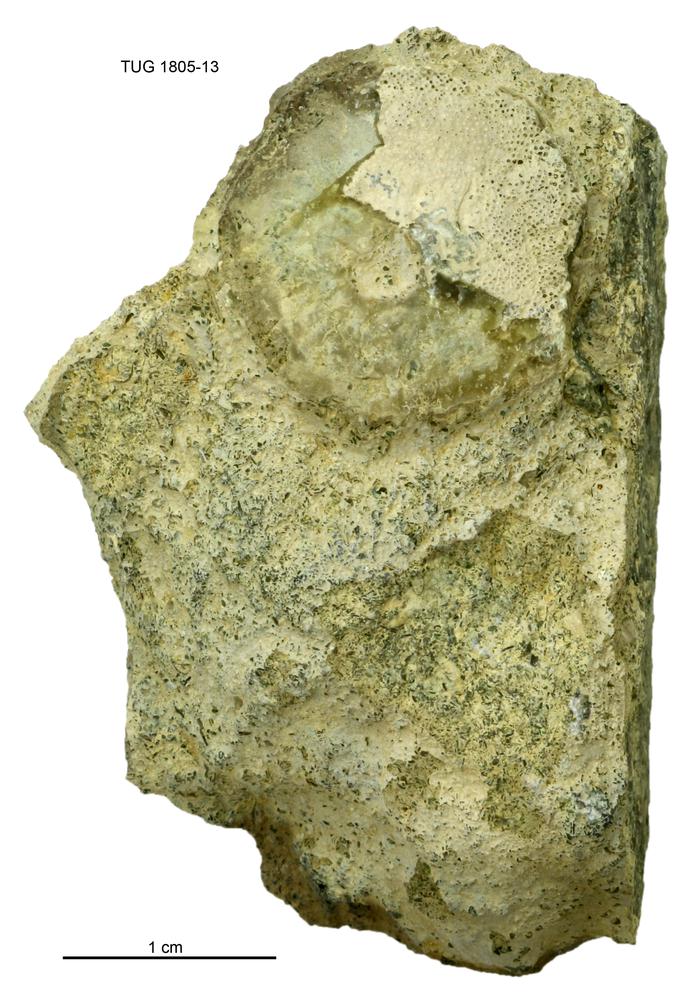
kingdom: Animalia
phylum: Mollusca
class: Gastropoda
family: Patellidae
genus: Patella
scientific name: Patella
